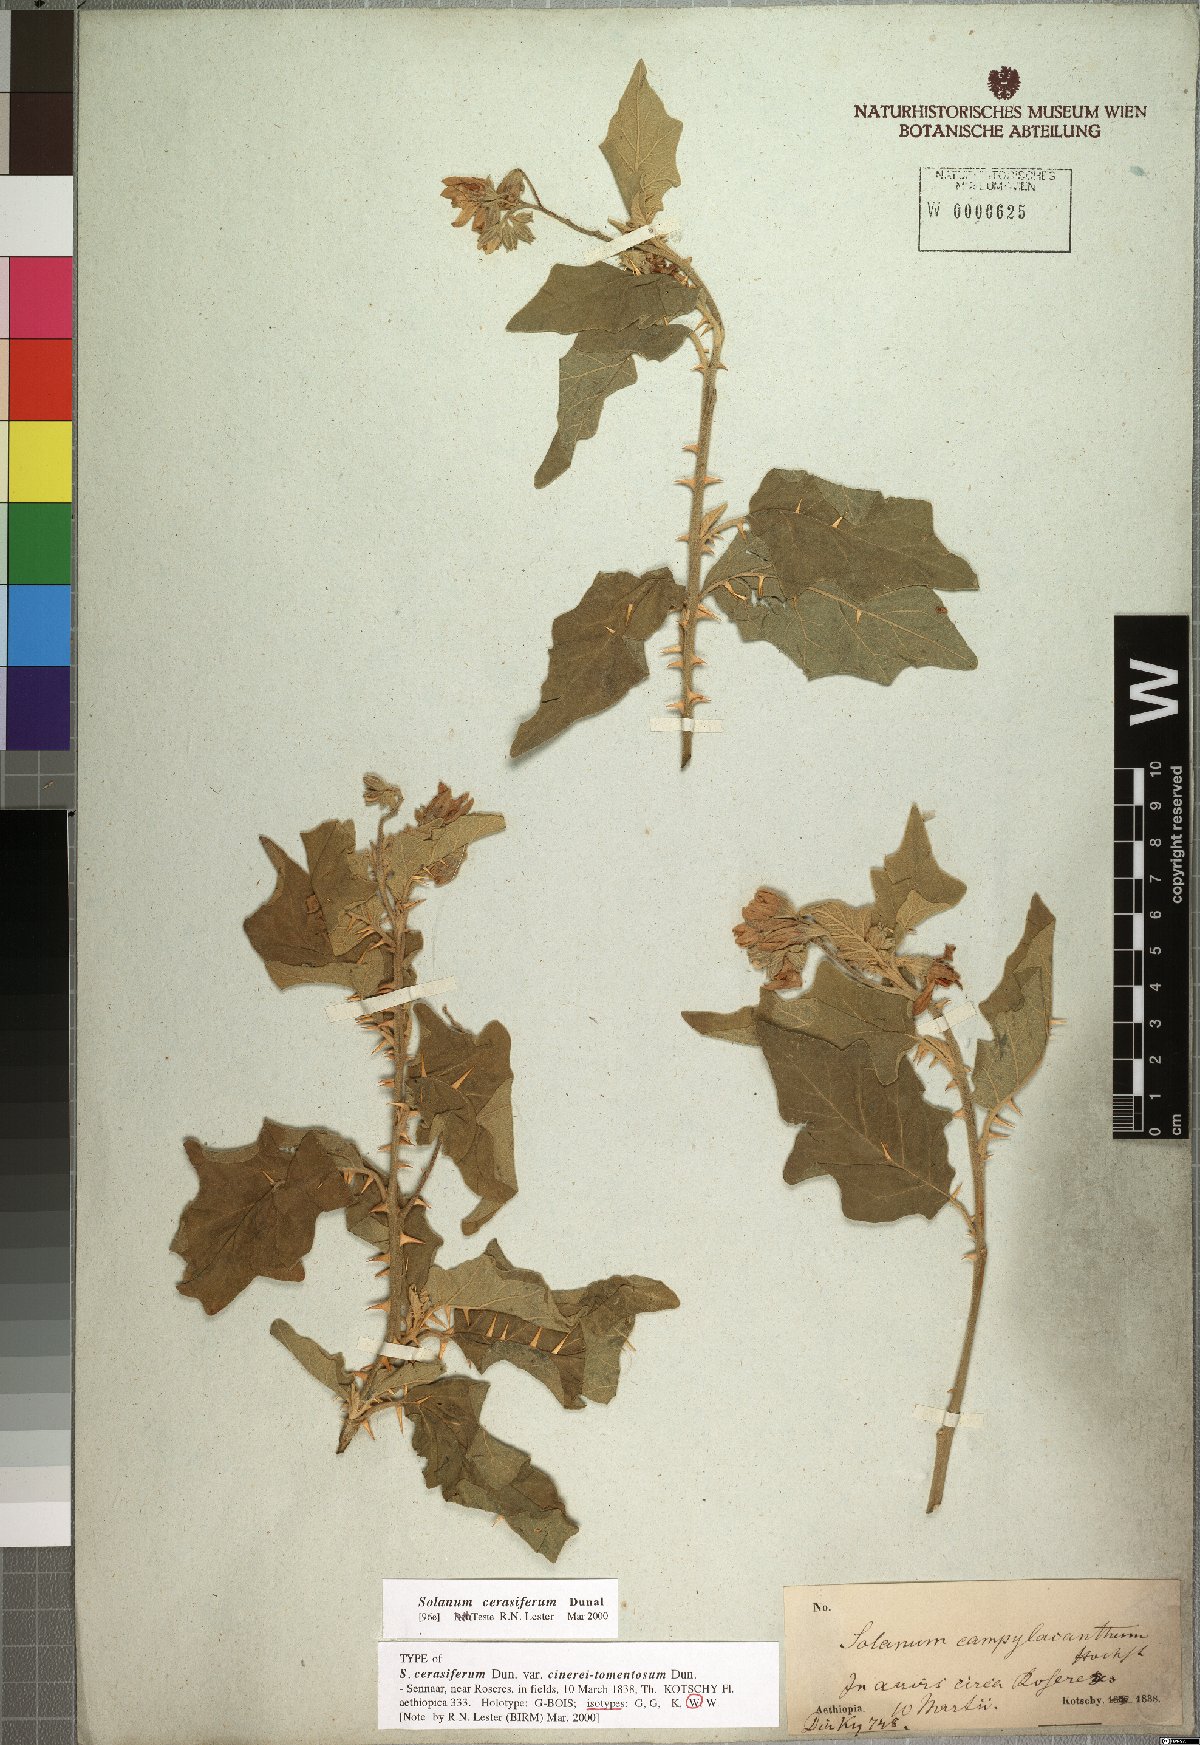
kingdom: Plantae
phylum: Tracheophyta
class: Magnoliopsida
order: Solanales
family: Solanaceae
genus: Solanum
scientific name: Solanum cerasiferum
